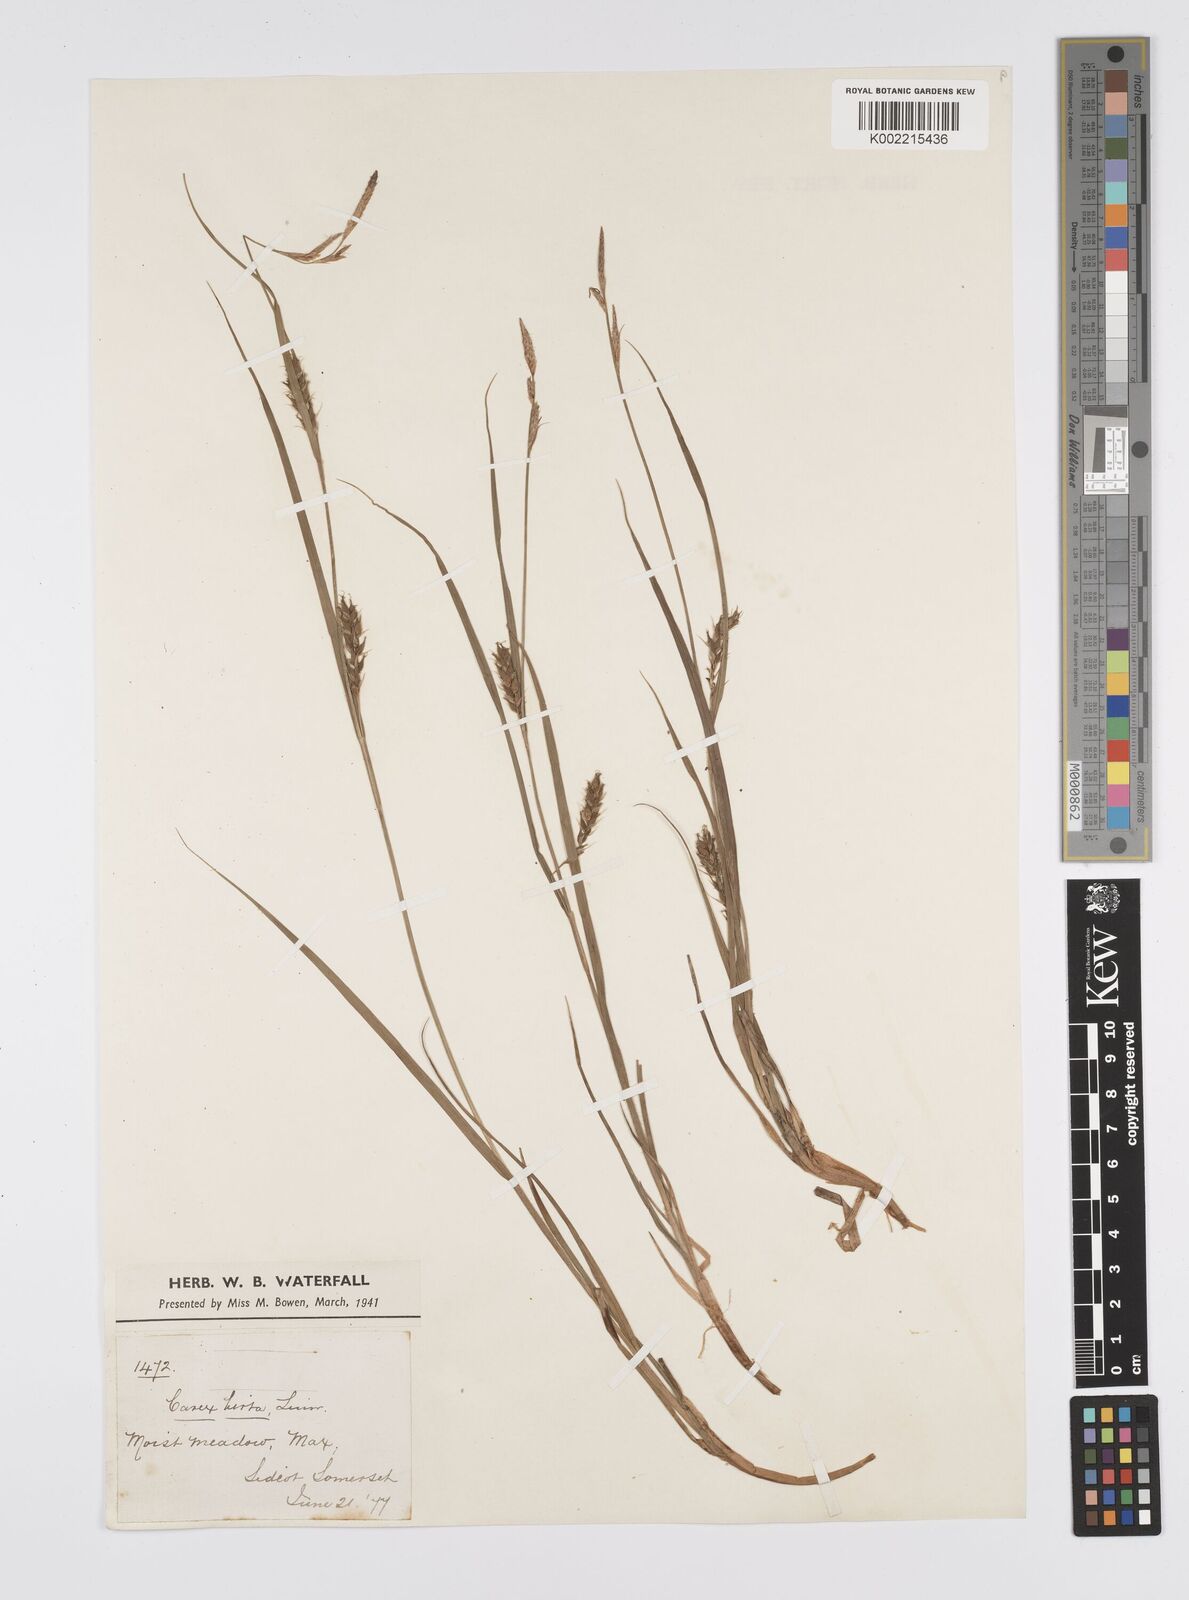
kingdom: Plantae
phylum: Tracheophyta
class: Liliopsida
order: Poales
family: Cyperaceae
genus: Carex
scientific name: Carex hirta
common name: Hairy sedge
